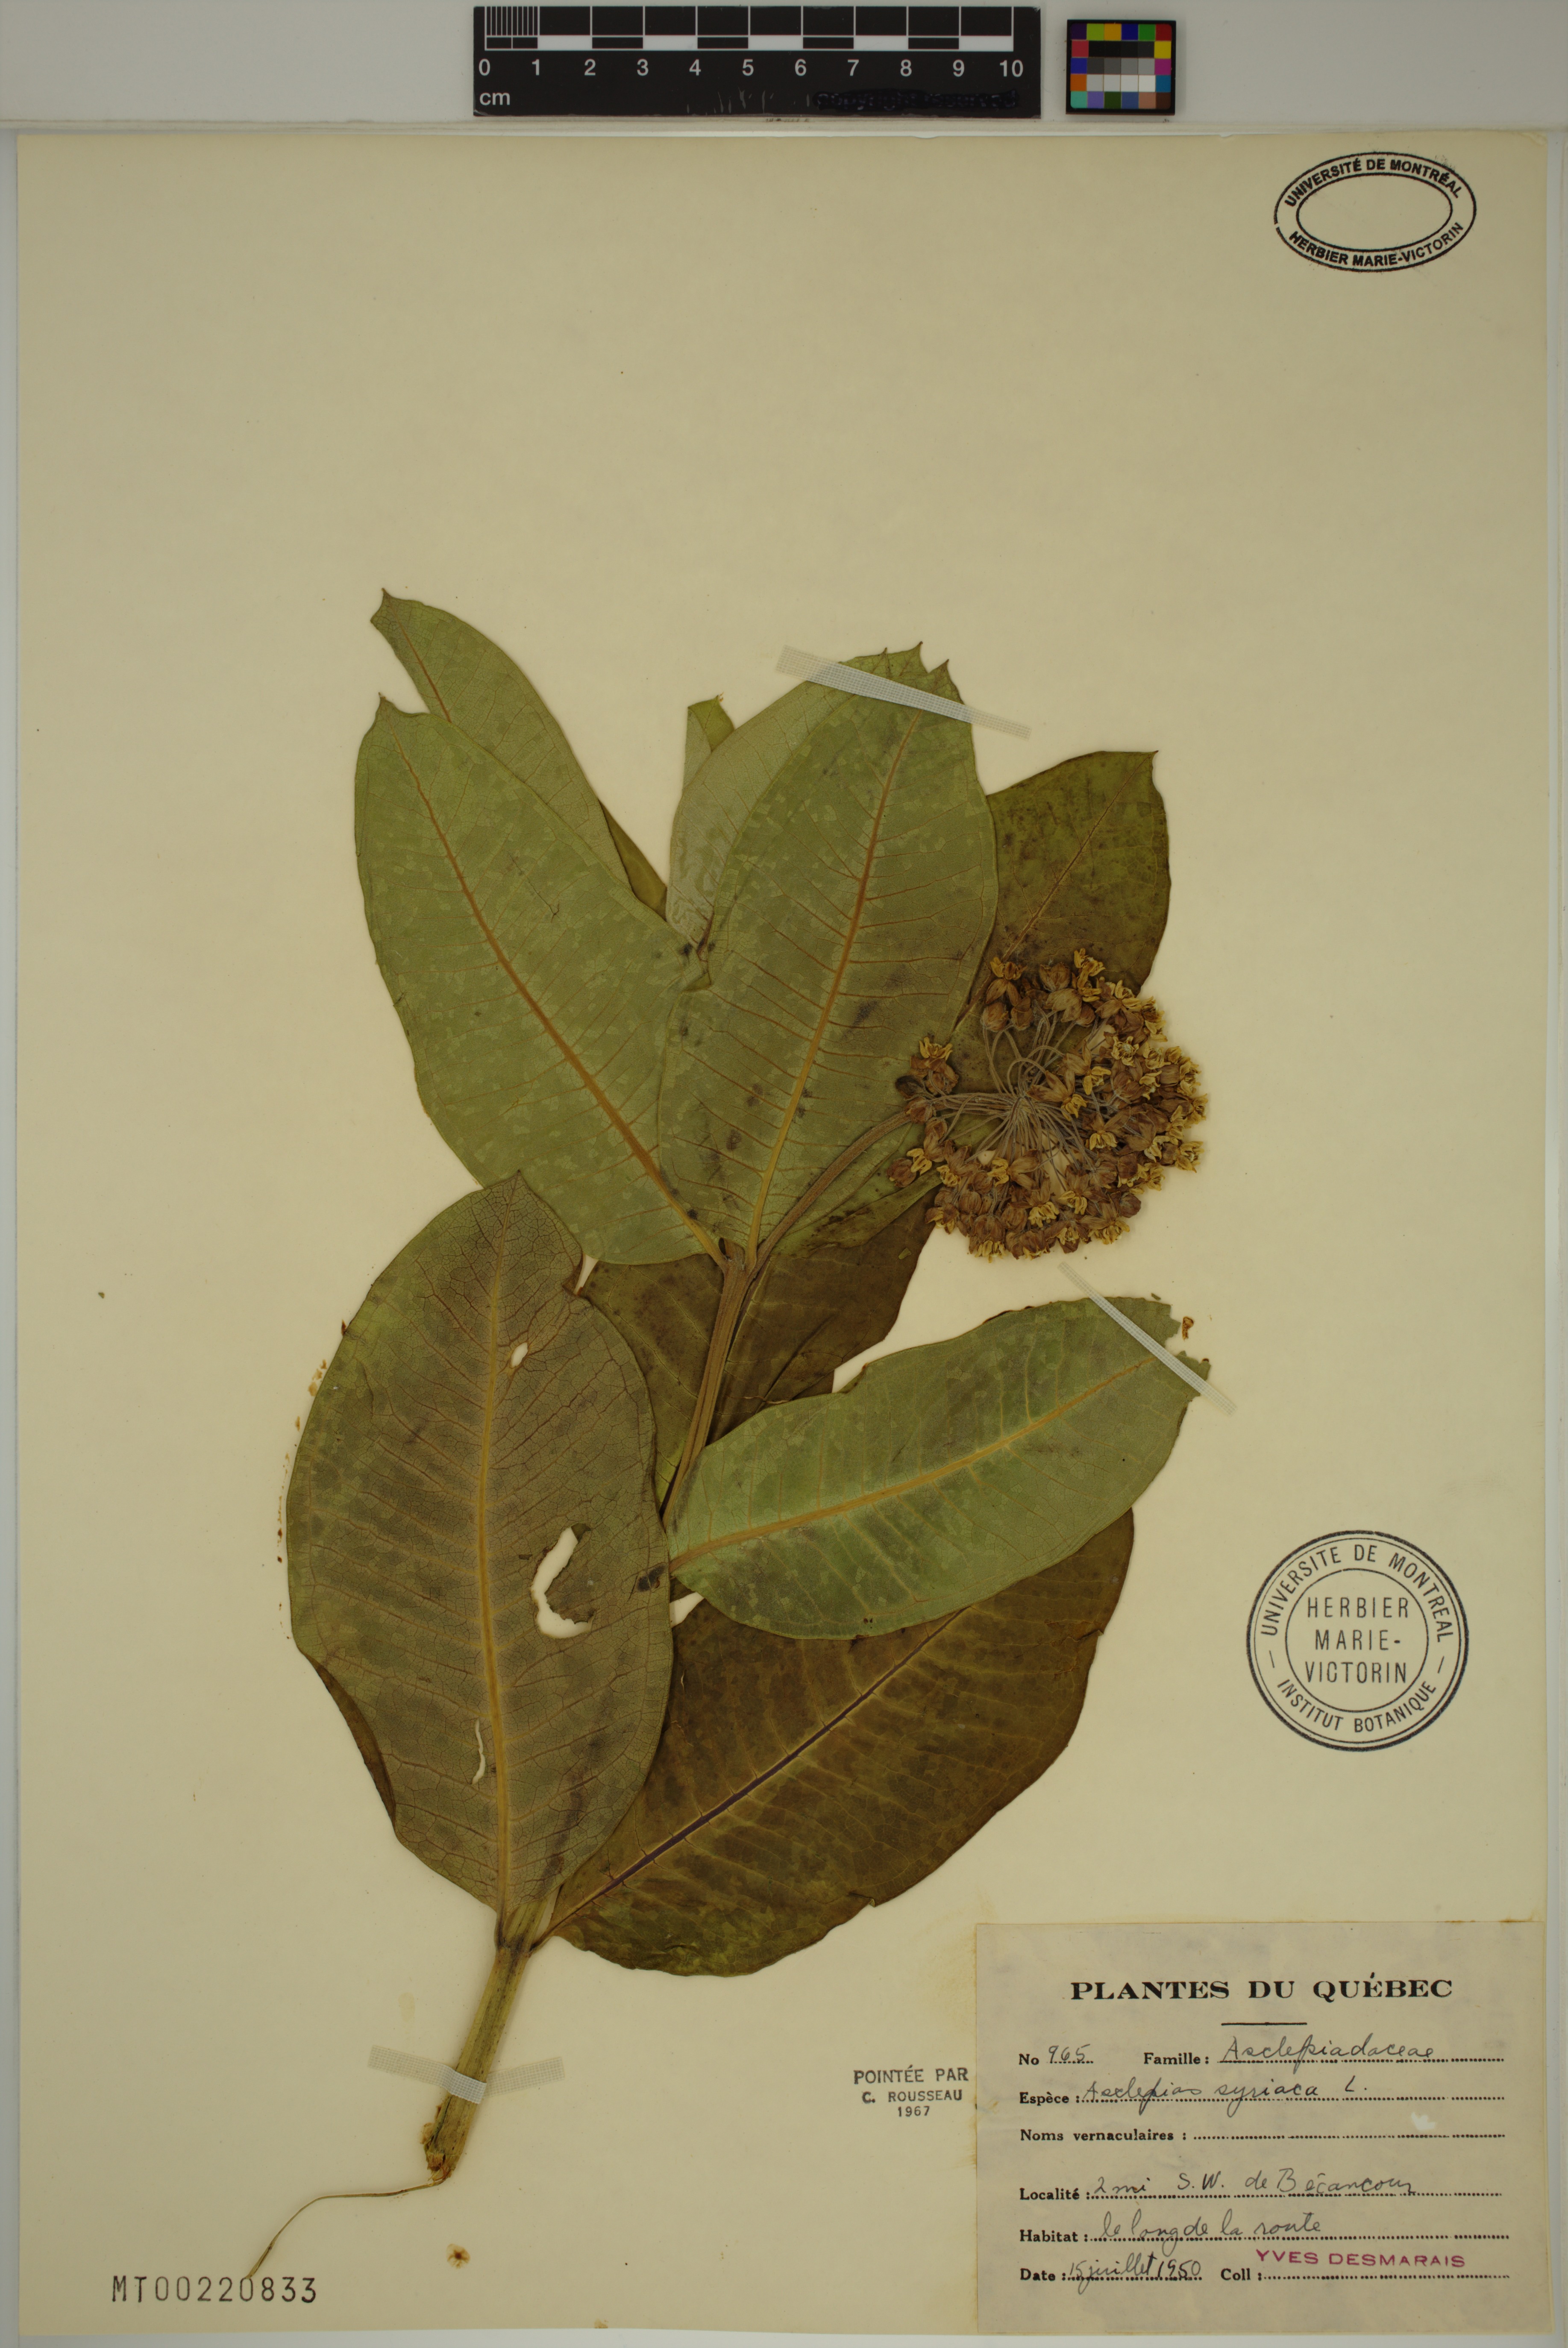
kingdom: Plantae
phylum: Tracheophyta
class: Magnoliopsida
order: Gentianales
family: Apocynaceae
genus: Asclepias
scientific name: Asclepias syriaca
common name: Common milkweed
